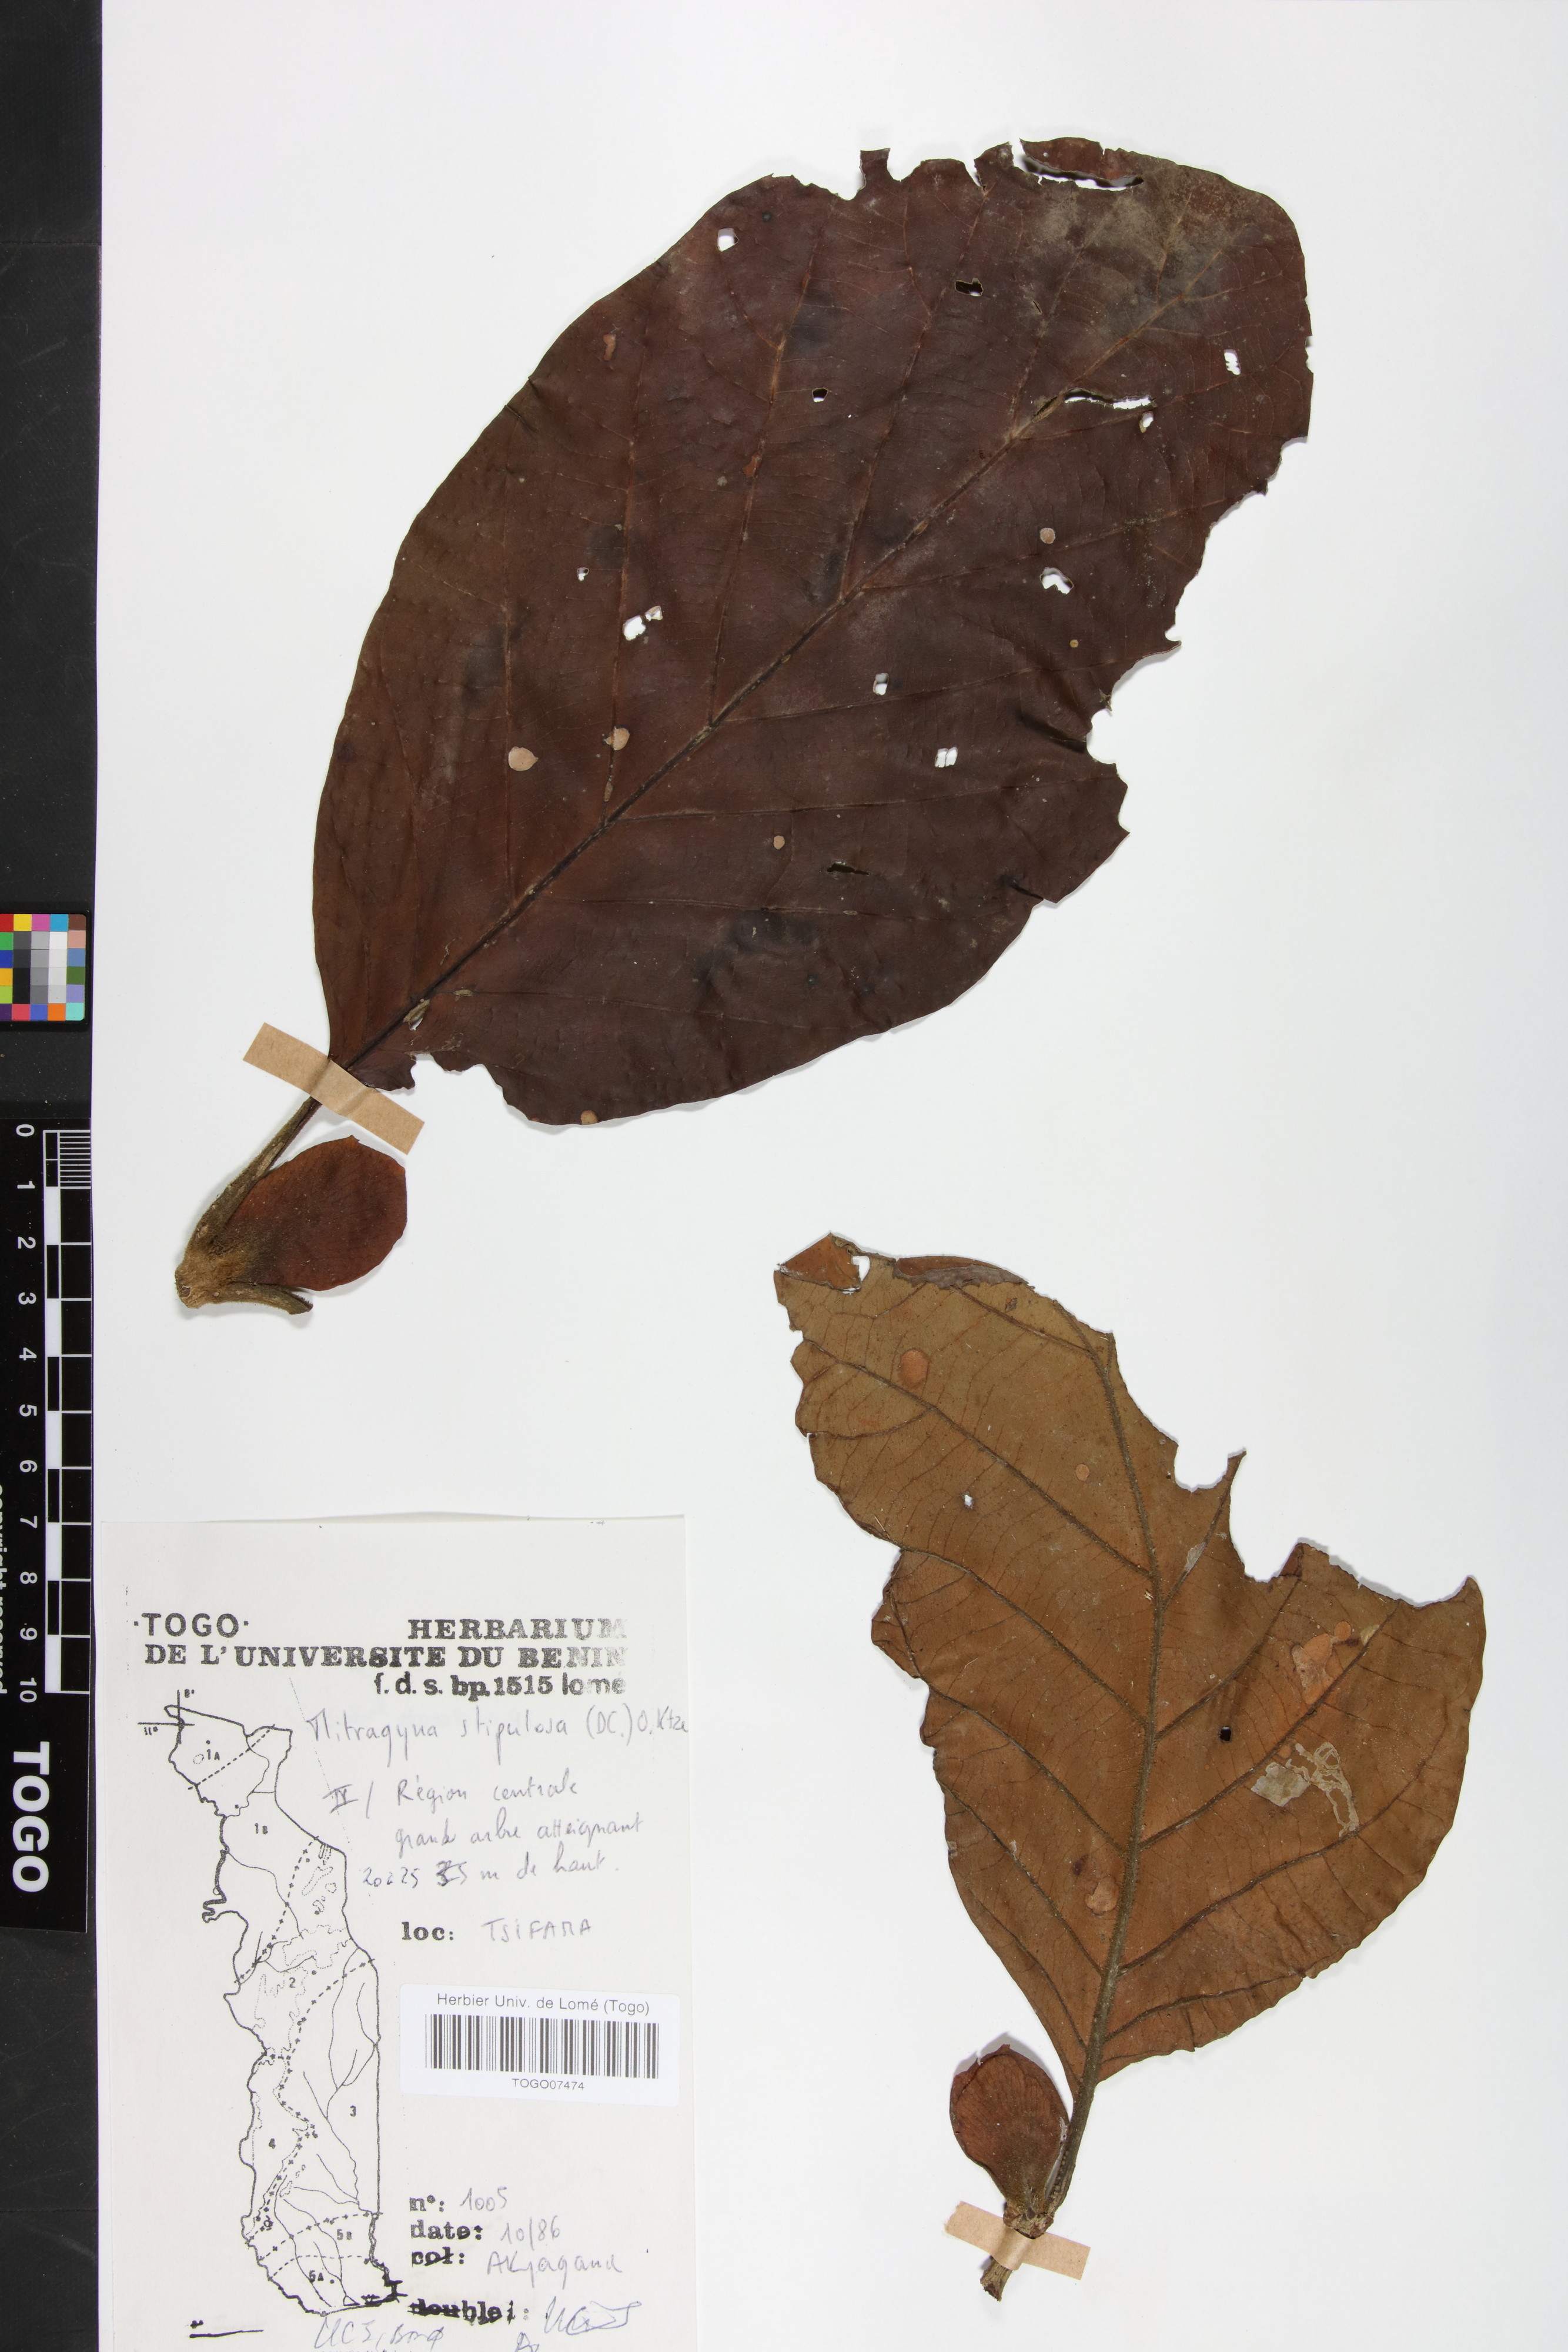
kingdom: Plantae
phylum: Tracheophyta
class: Magnoliopsida
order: Gentianales
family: Rubiaceae
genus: Mitragyna
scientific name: Mitragyna stipulosa
